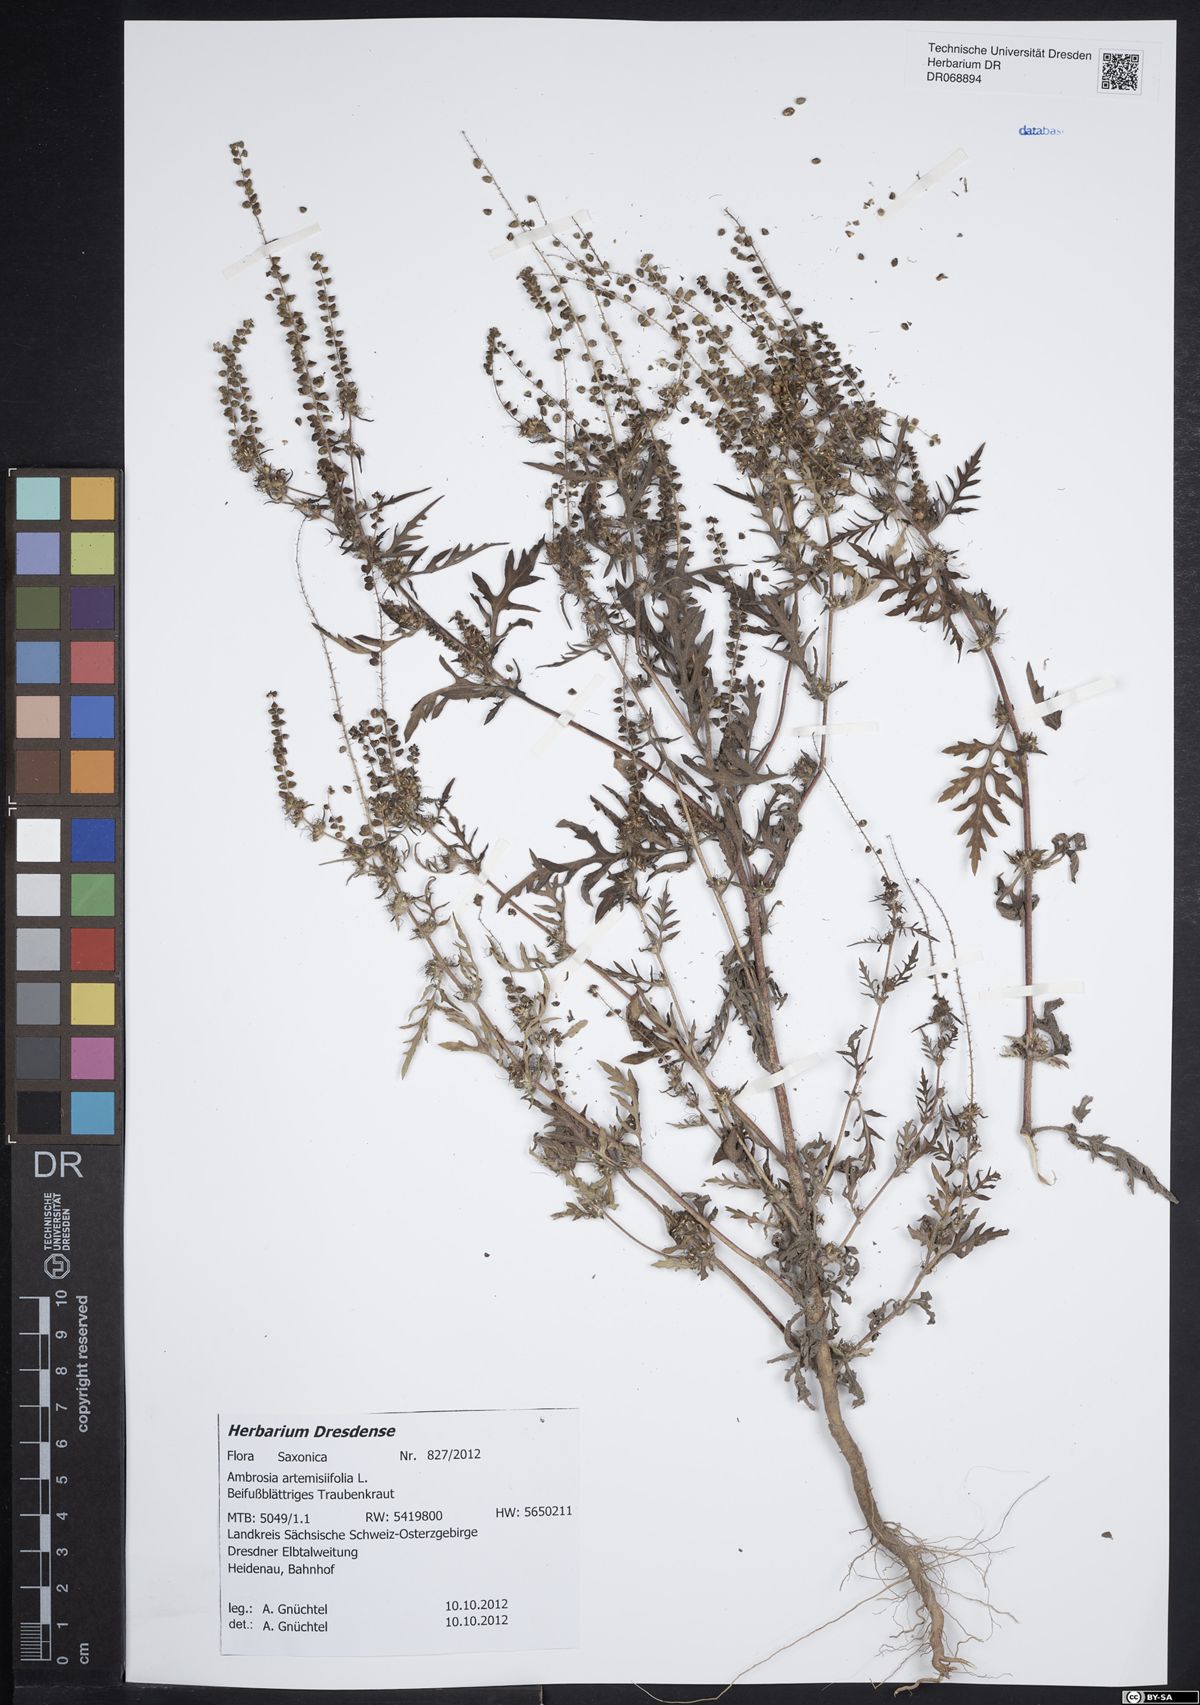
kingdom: Plantae
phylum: Tracheophyta
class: Magnoliopsida
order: Asterales
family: Asteraceae
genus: Ambrosia
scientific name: Ambrosia artemisiifolia
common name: Annual ragweed
